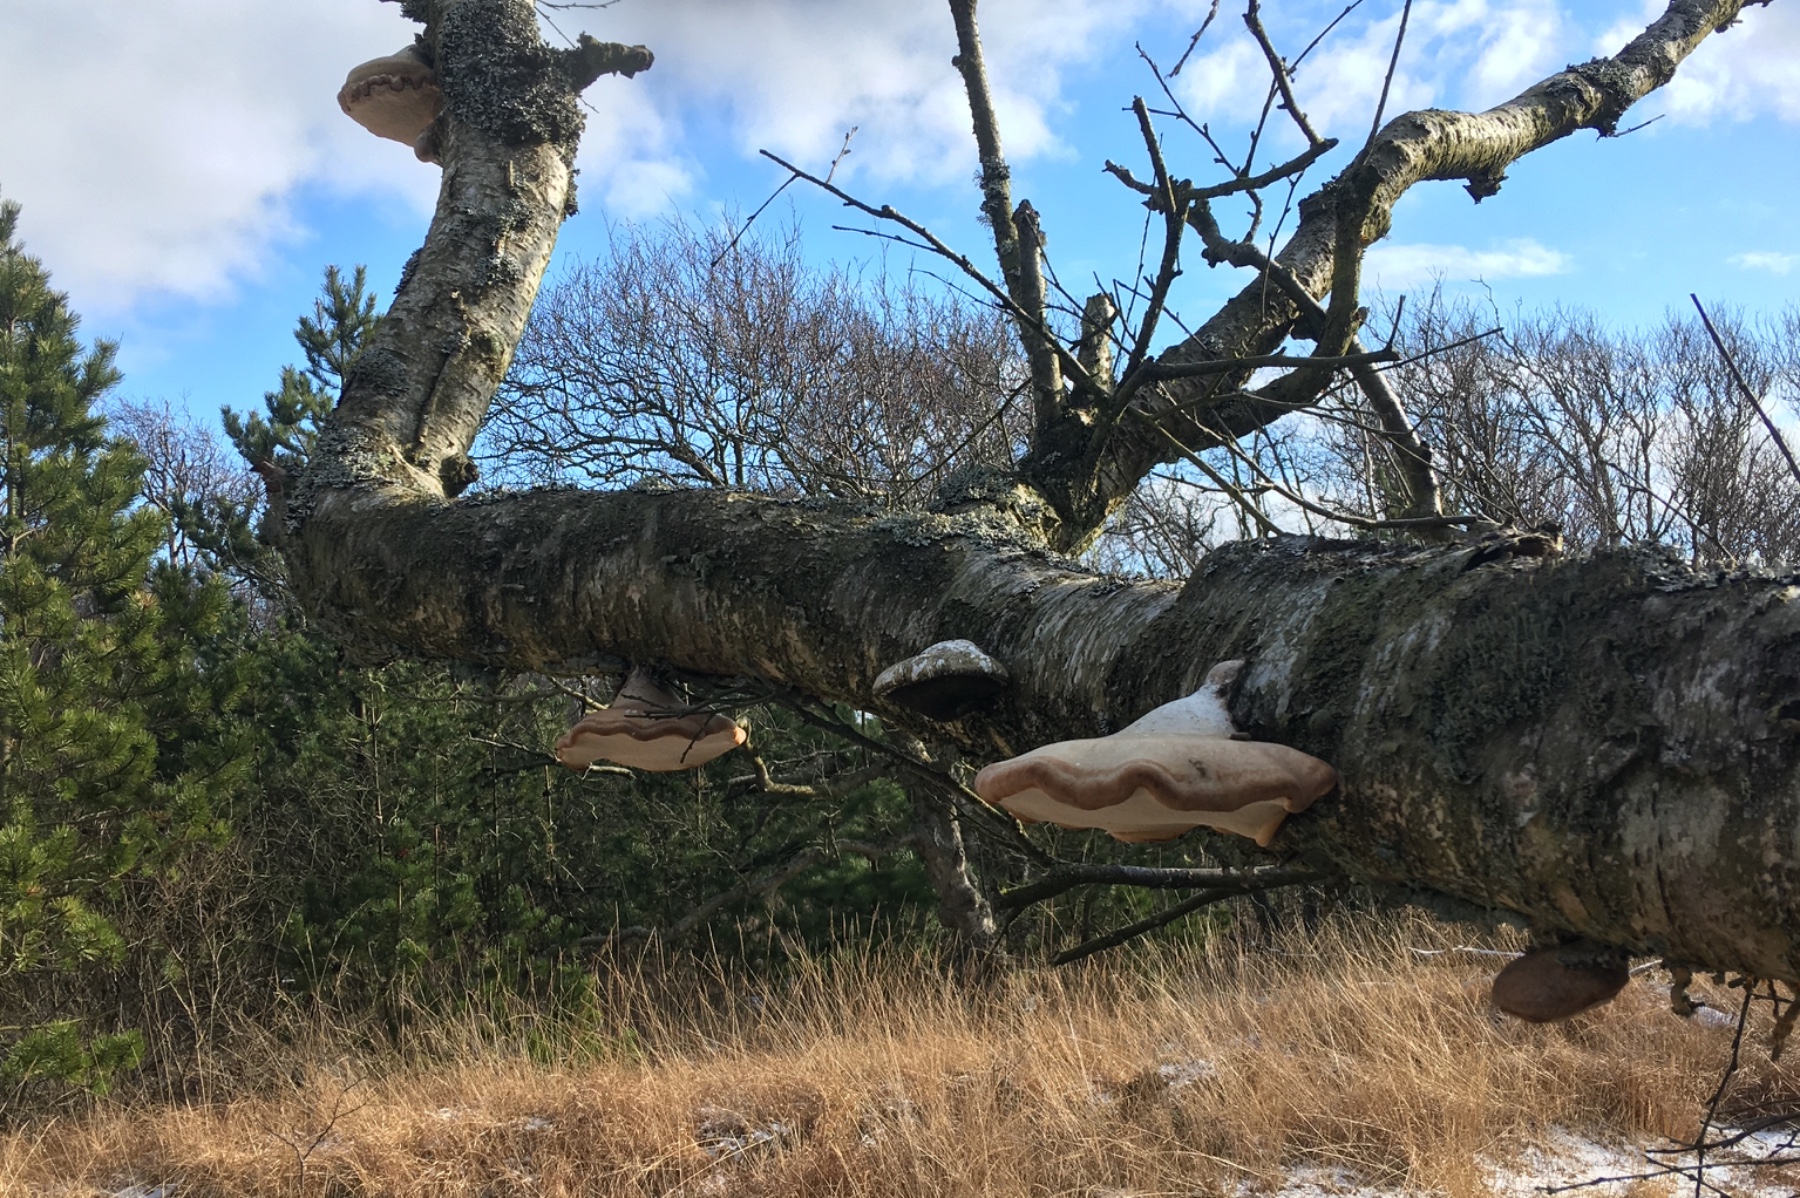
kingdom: Fungi
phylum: Basidiomycota
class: Agaricomycetes
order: Polyporales
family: Fomitopsidaceae
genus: Fomitopsis
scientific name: Fomitopsis betulina
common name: birkeporesvamp
